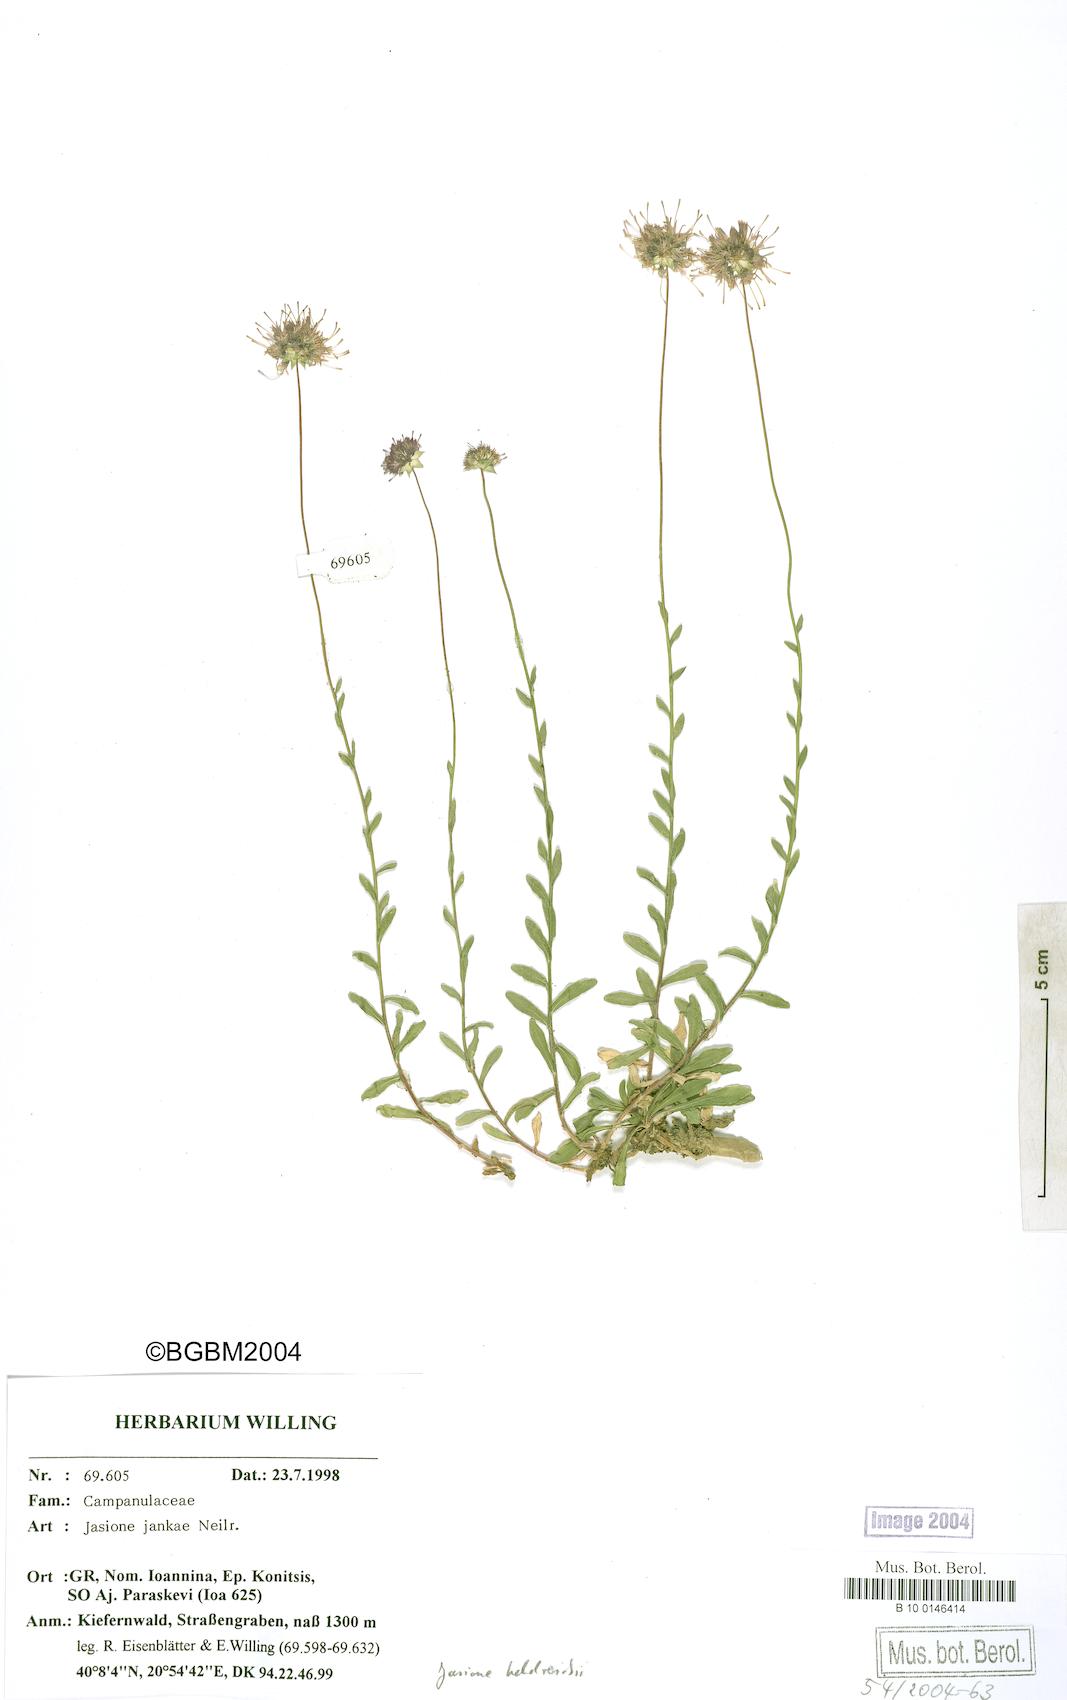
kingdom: Plantae
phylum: Tracheophyta
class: Magnoliopsida
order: Asterales
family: Campanulaceae
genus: Jasione
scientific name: Jasione heldreichii
